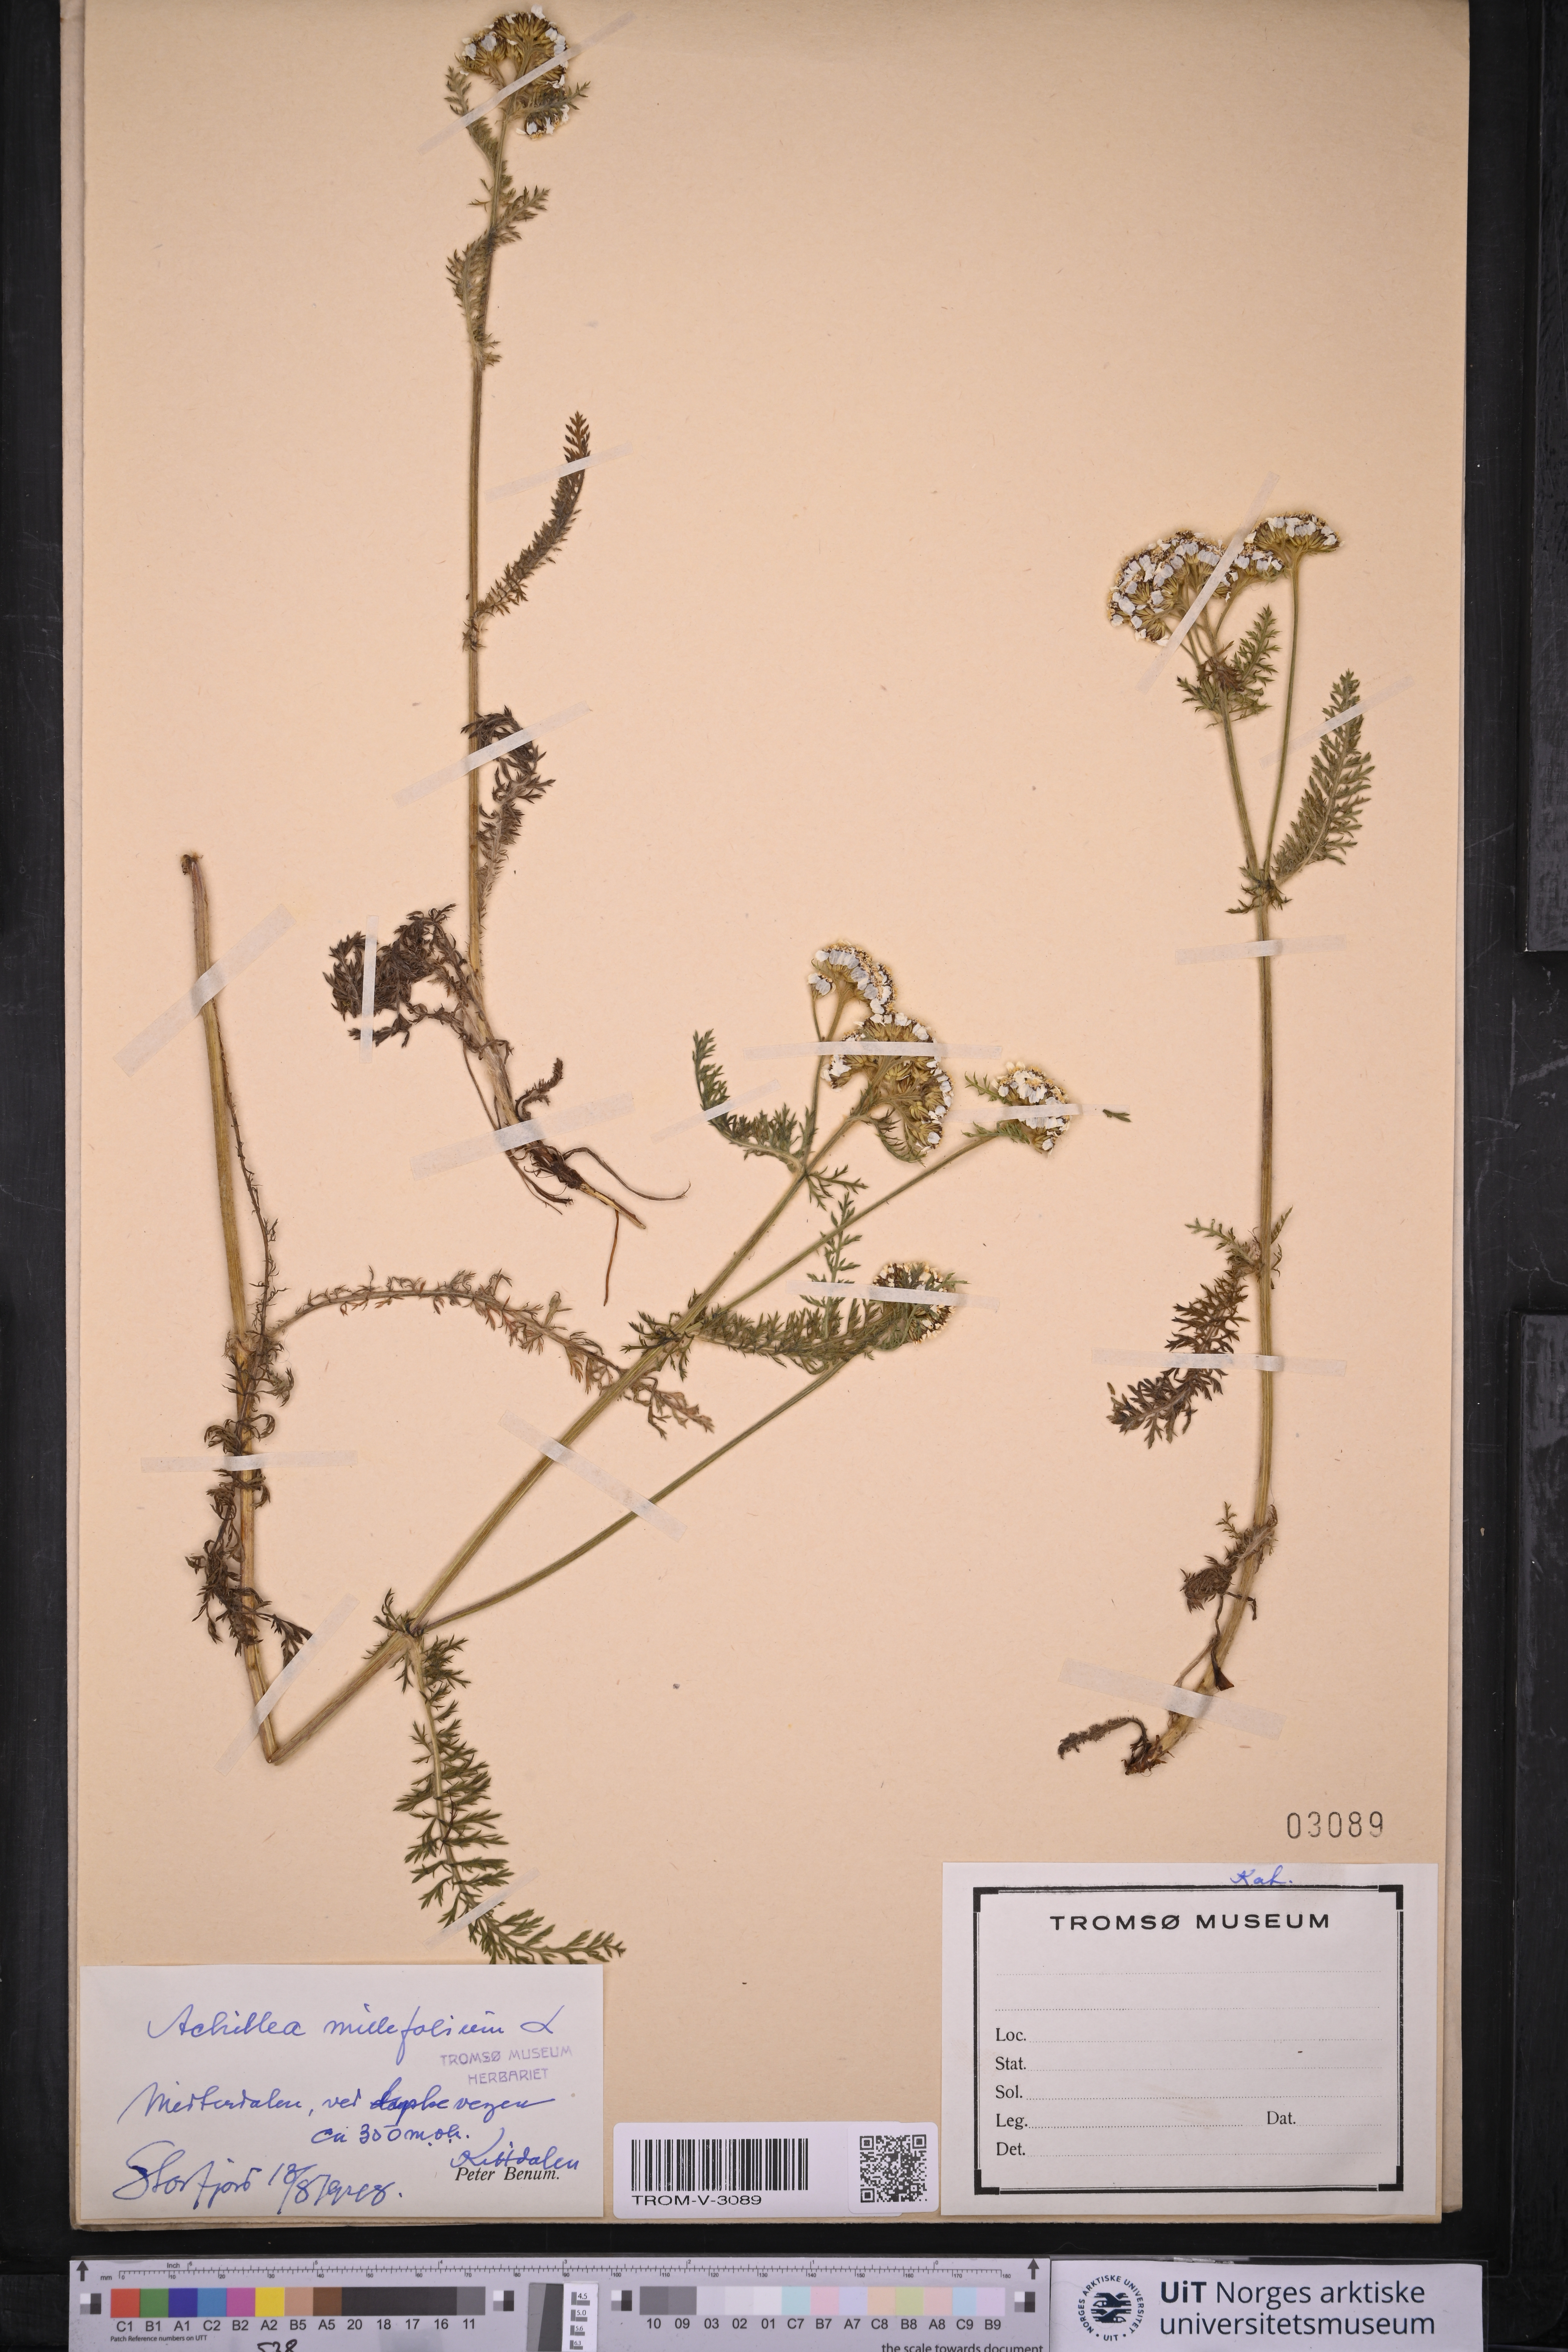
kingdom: Plantae
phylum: Tracheophyta
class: Magnoliopsida
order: Asterales
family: Asteraceae
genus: Achillea
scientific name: Achillea millefolium
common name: Yarrow
